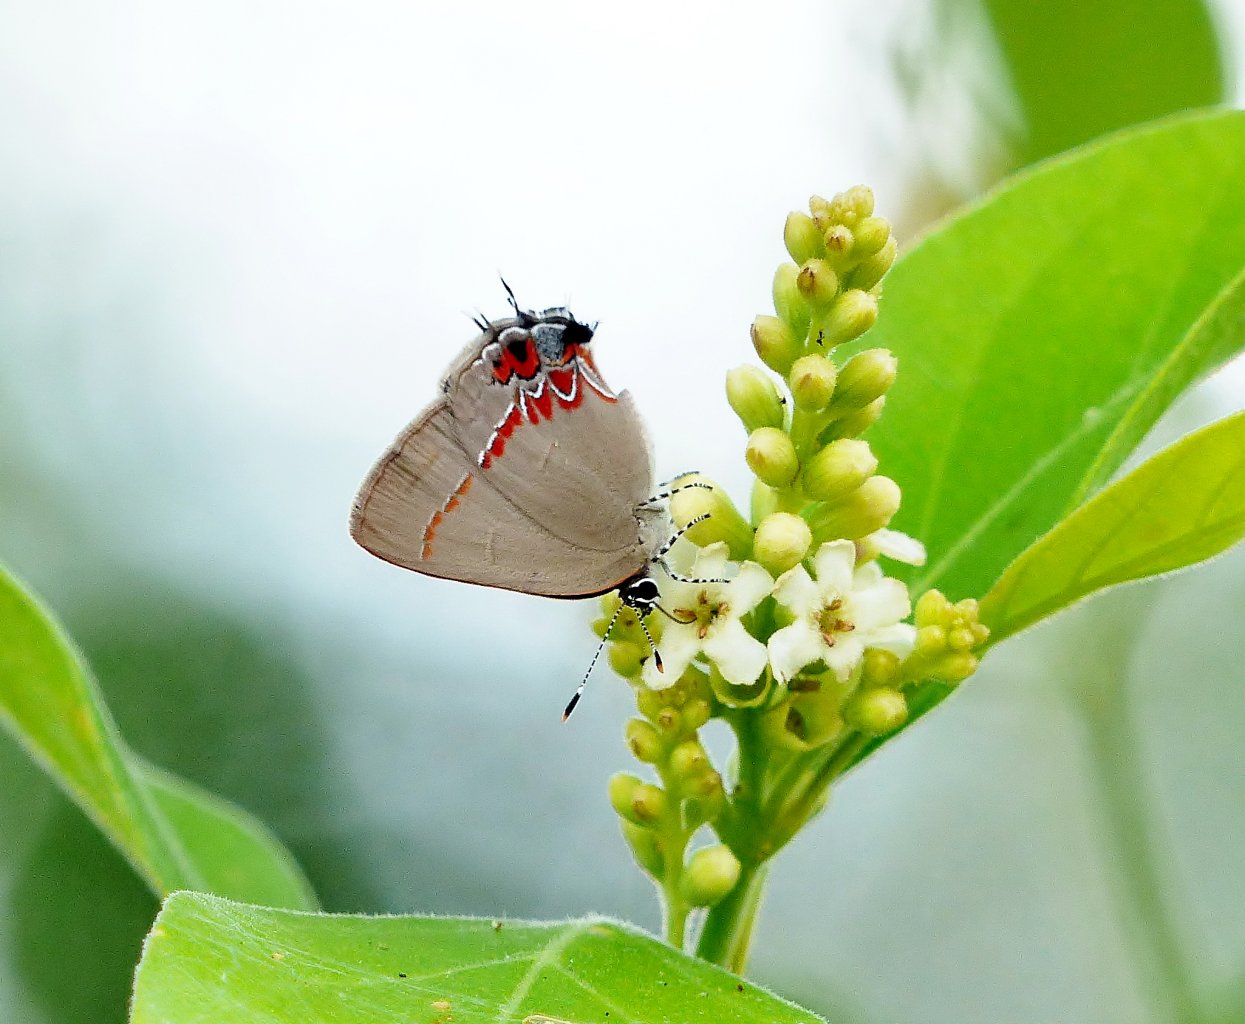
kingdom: Animalia
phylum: Arthropoda
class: Insecta
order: Lepidoptera
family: Lycaenidae
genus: Calycopis
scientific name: Calycopis isobeon
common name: Dusky-blue Groundstreak
